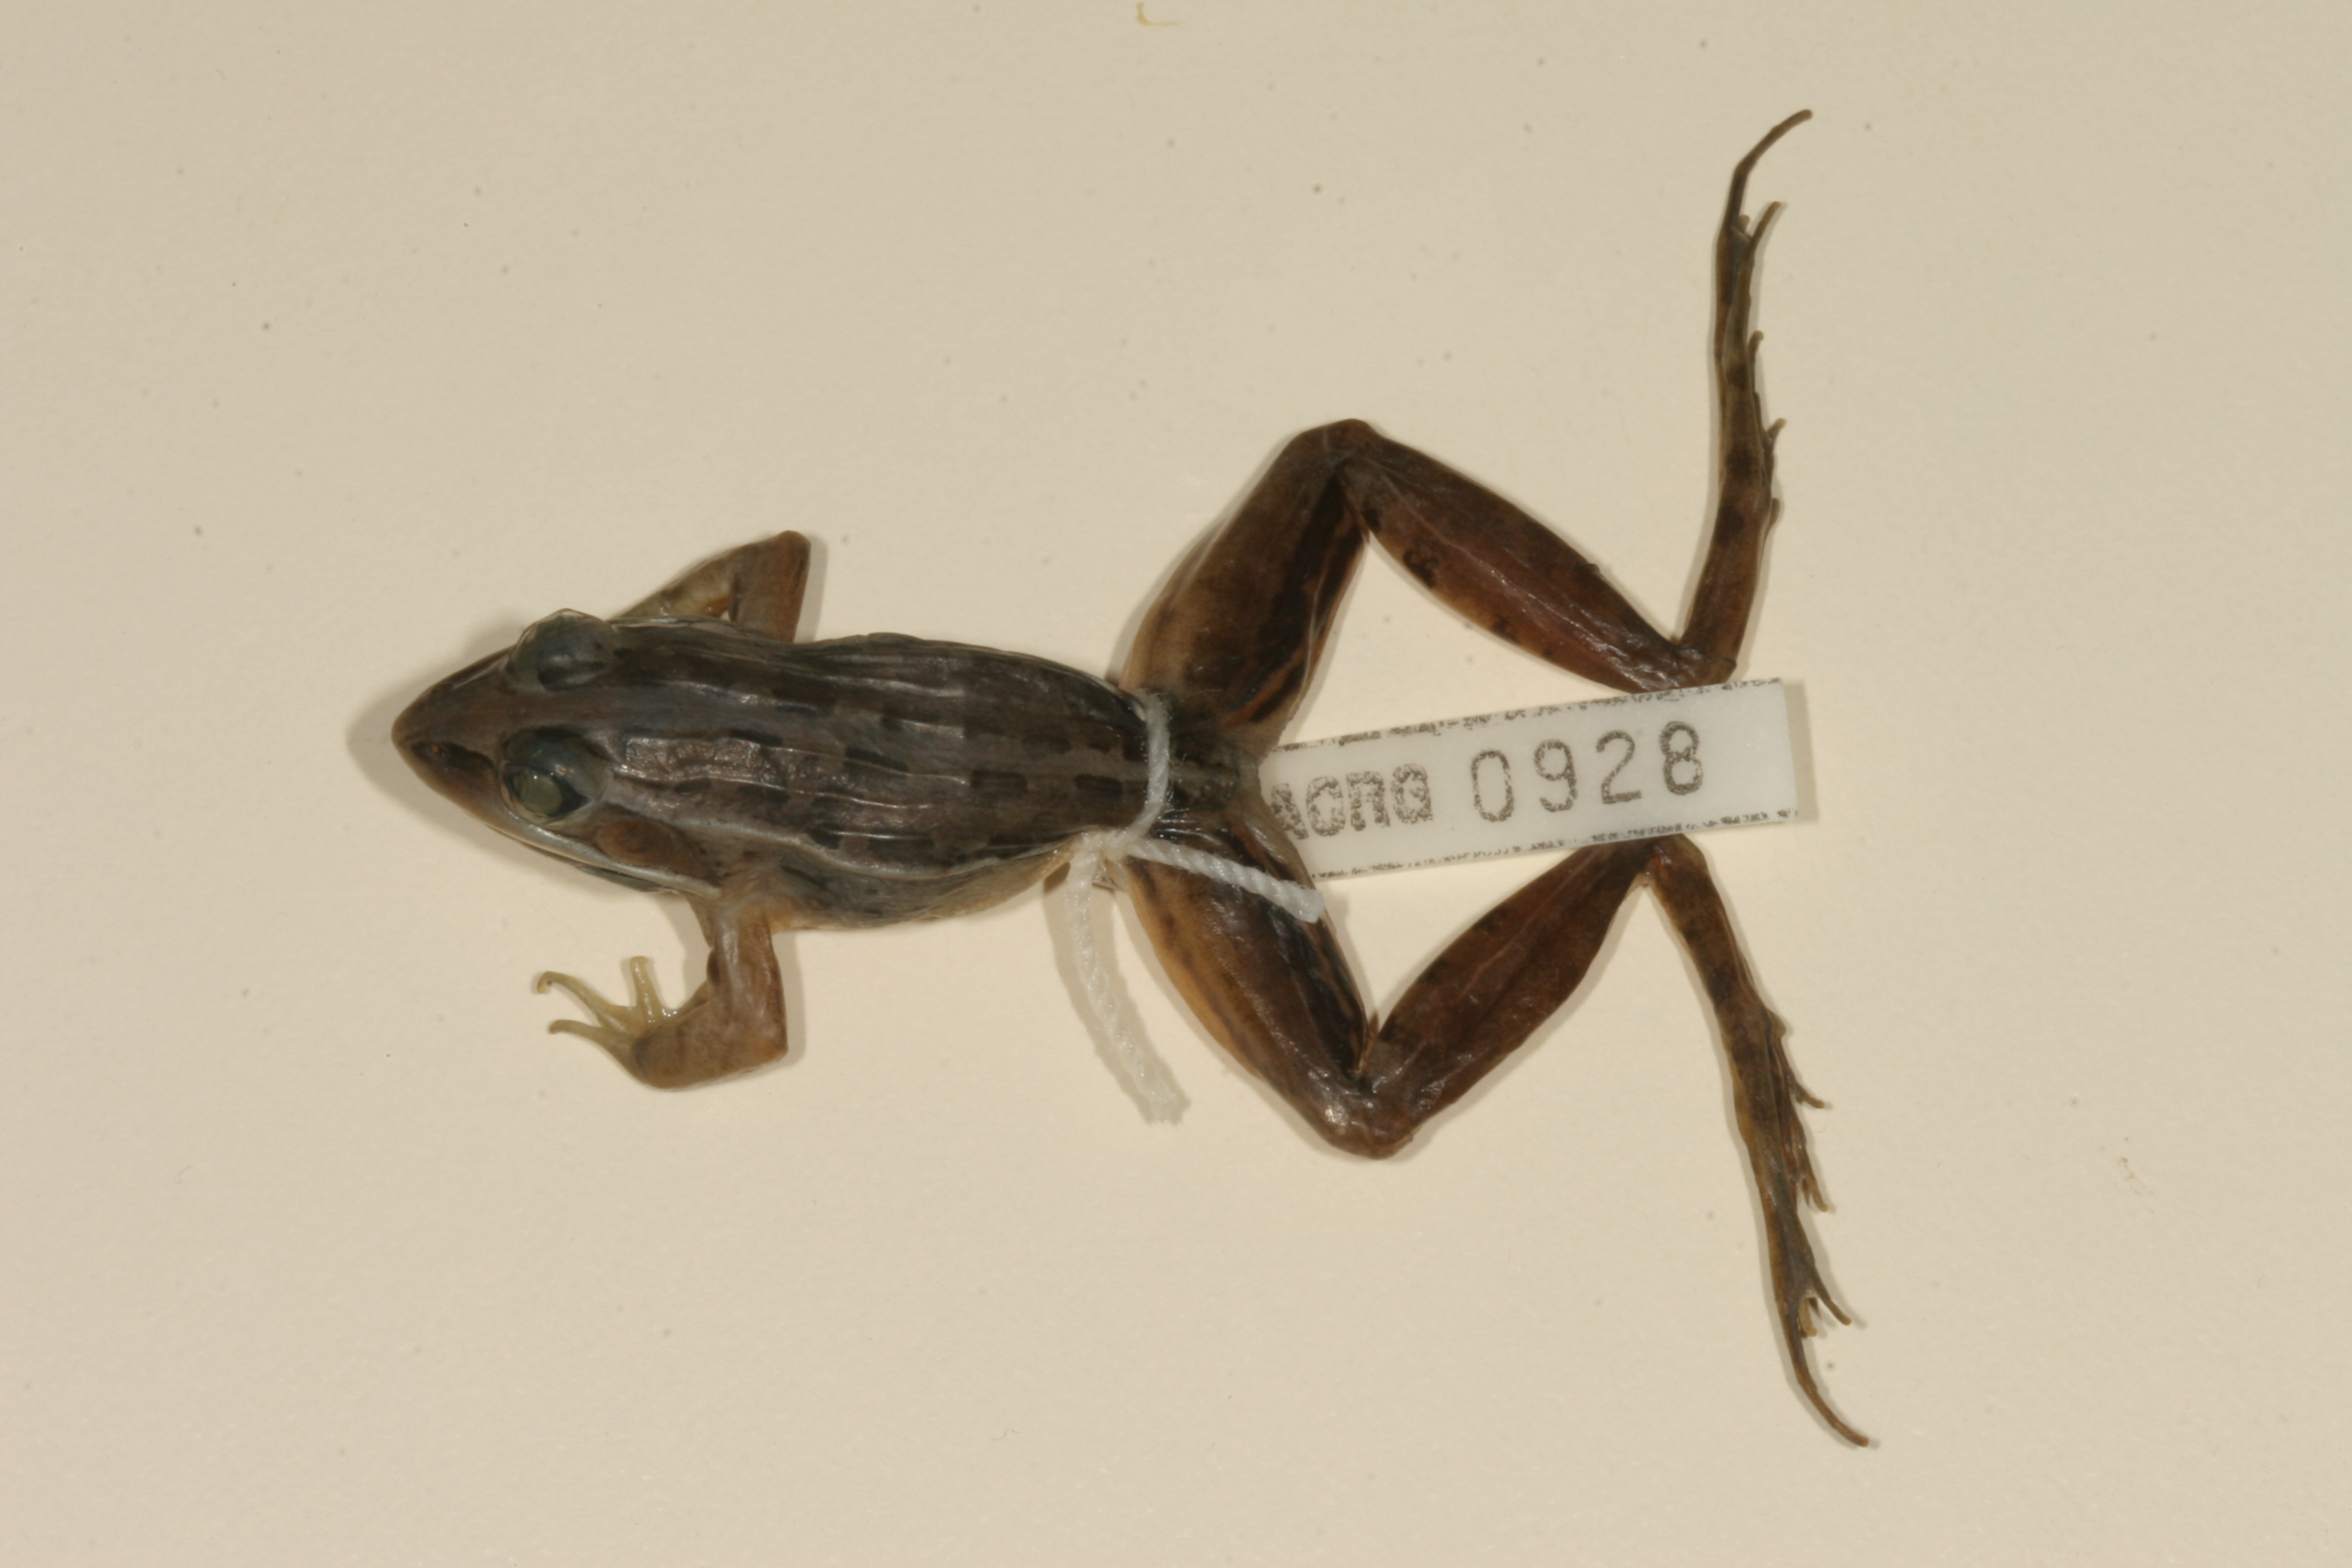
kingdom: Animalia
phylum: Chordata
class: Amphibia
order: Anura
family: Ptychadenidae
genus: Ptychadena
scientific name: Ptychadena mascareniensis
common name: Mascarene grass frog
